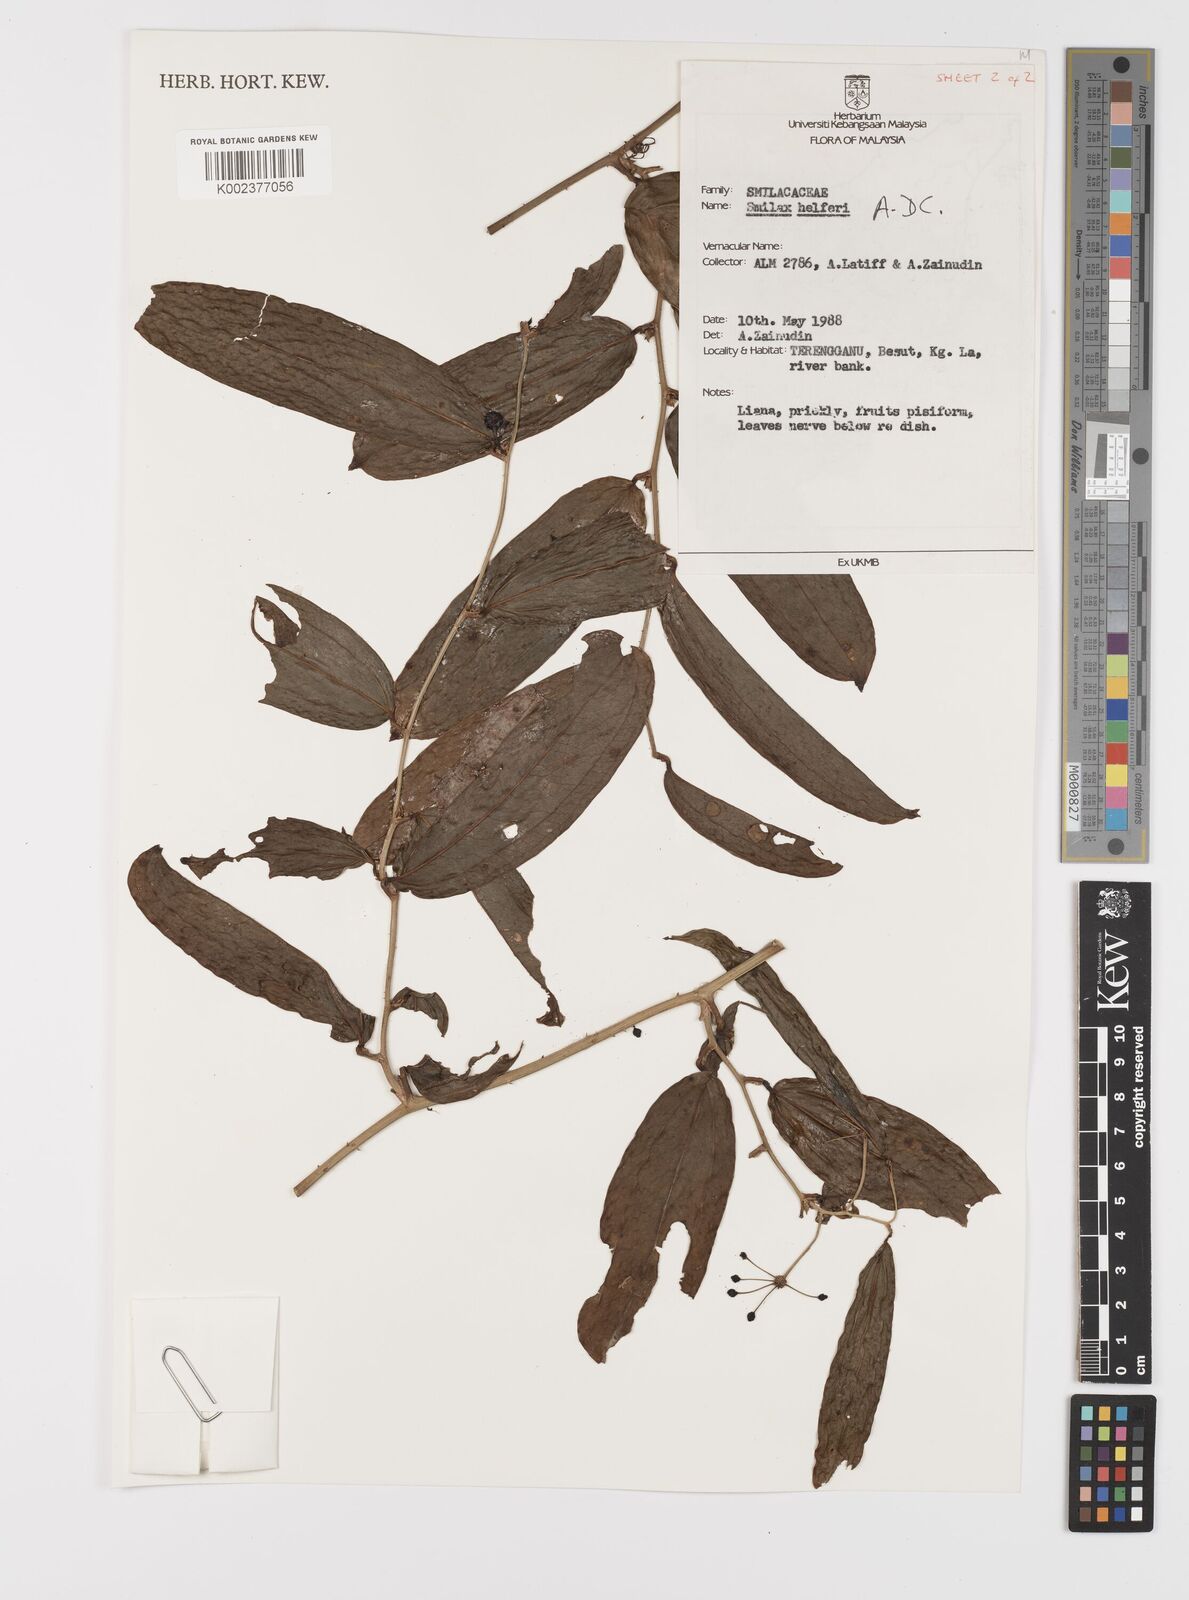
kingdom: Plantae
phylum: Tracheophyta
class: Liliopsida
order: Liliales
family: Smilacaceae
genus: Smilax
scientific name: Smilax luzonensis
